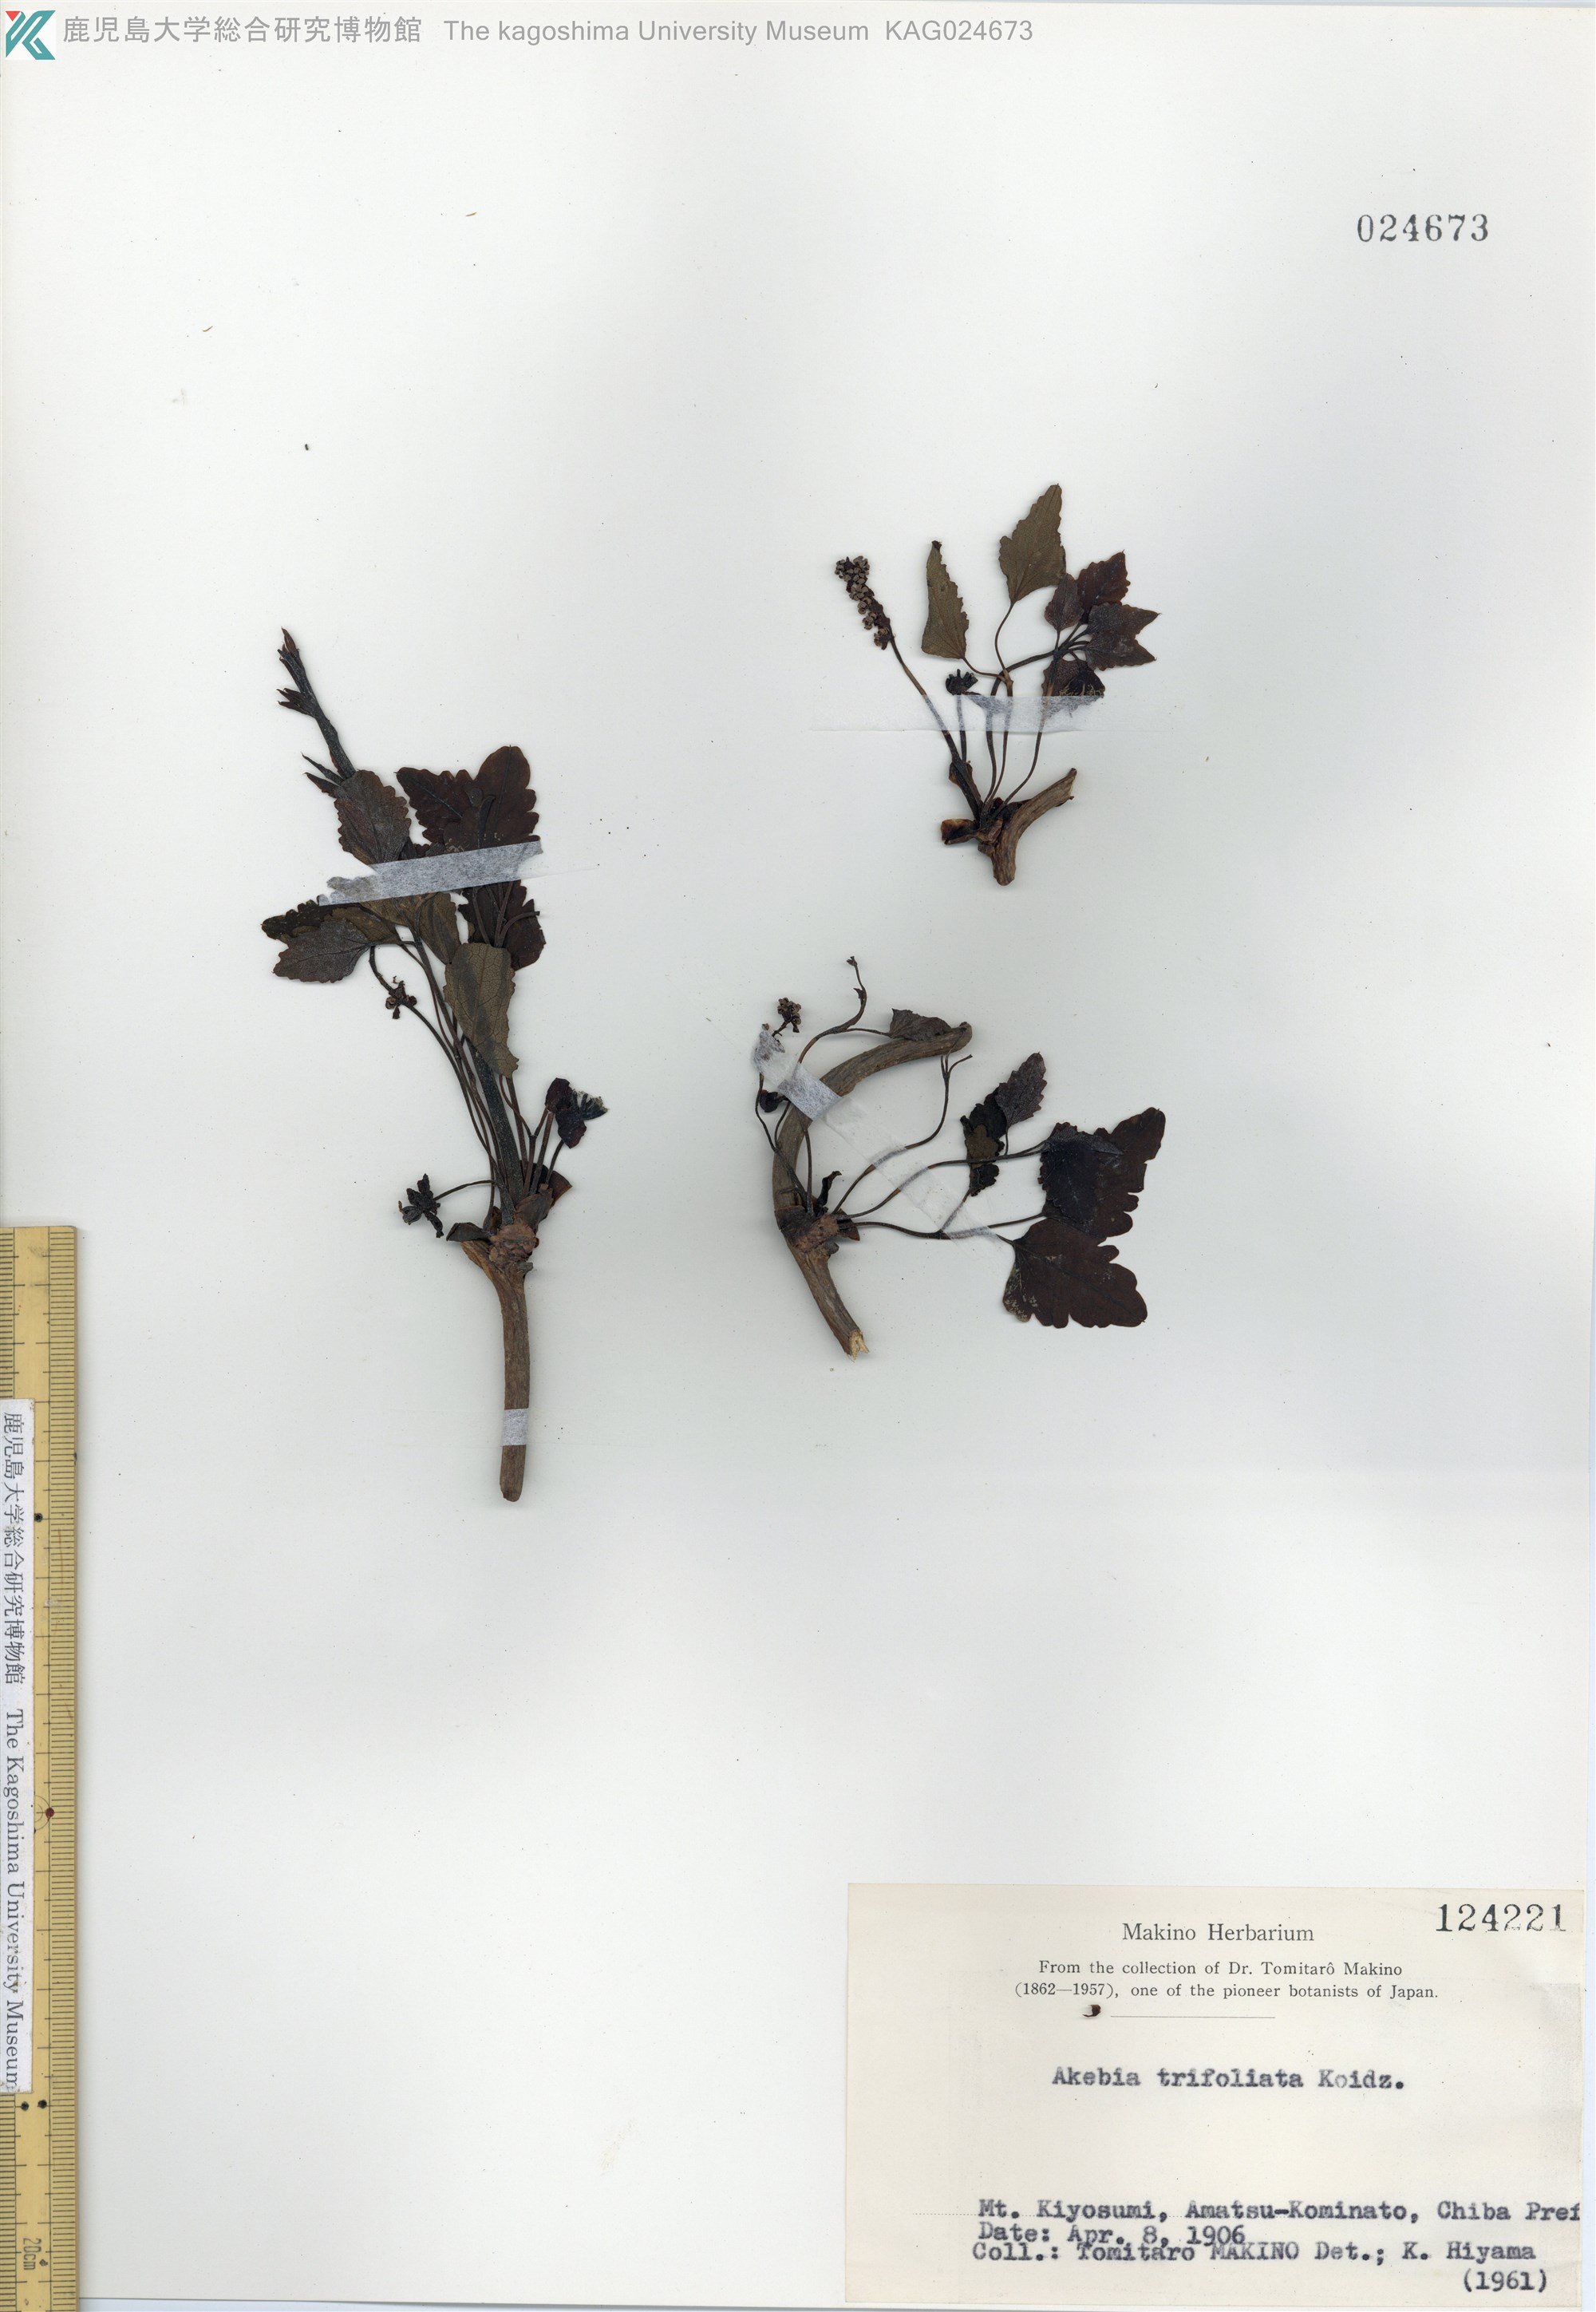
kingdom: Plantae
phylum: Tracheophyta
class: Magnoliopsida
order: Ranunculales
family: Lardizabalaceae
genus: Akebia
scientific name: Akebia trifoliata
